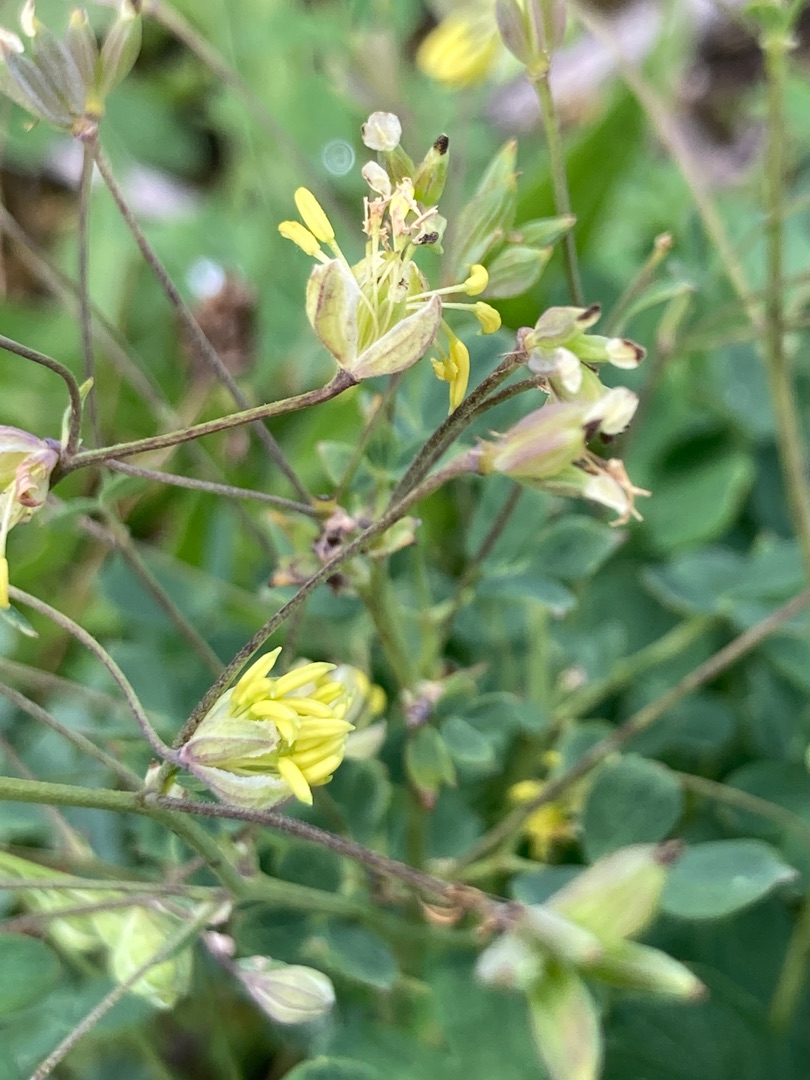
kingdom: Plantae
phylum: Tracheophyta
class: Magnoliopsida
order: Ranunculales
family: Ranunculaceae
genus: Thalictrum
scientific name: Thalictrum minus
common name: Liden frøstjerne
